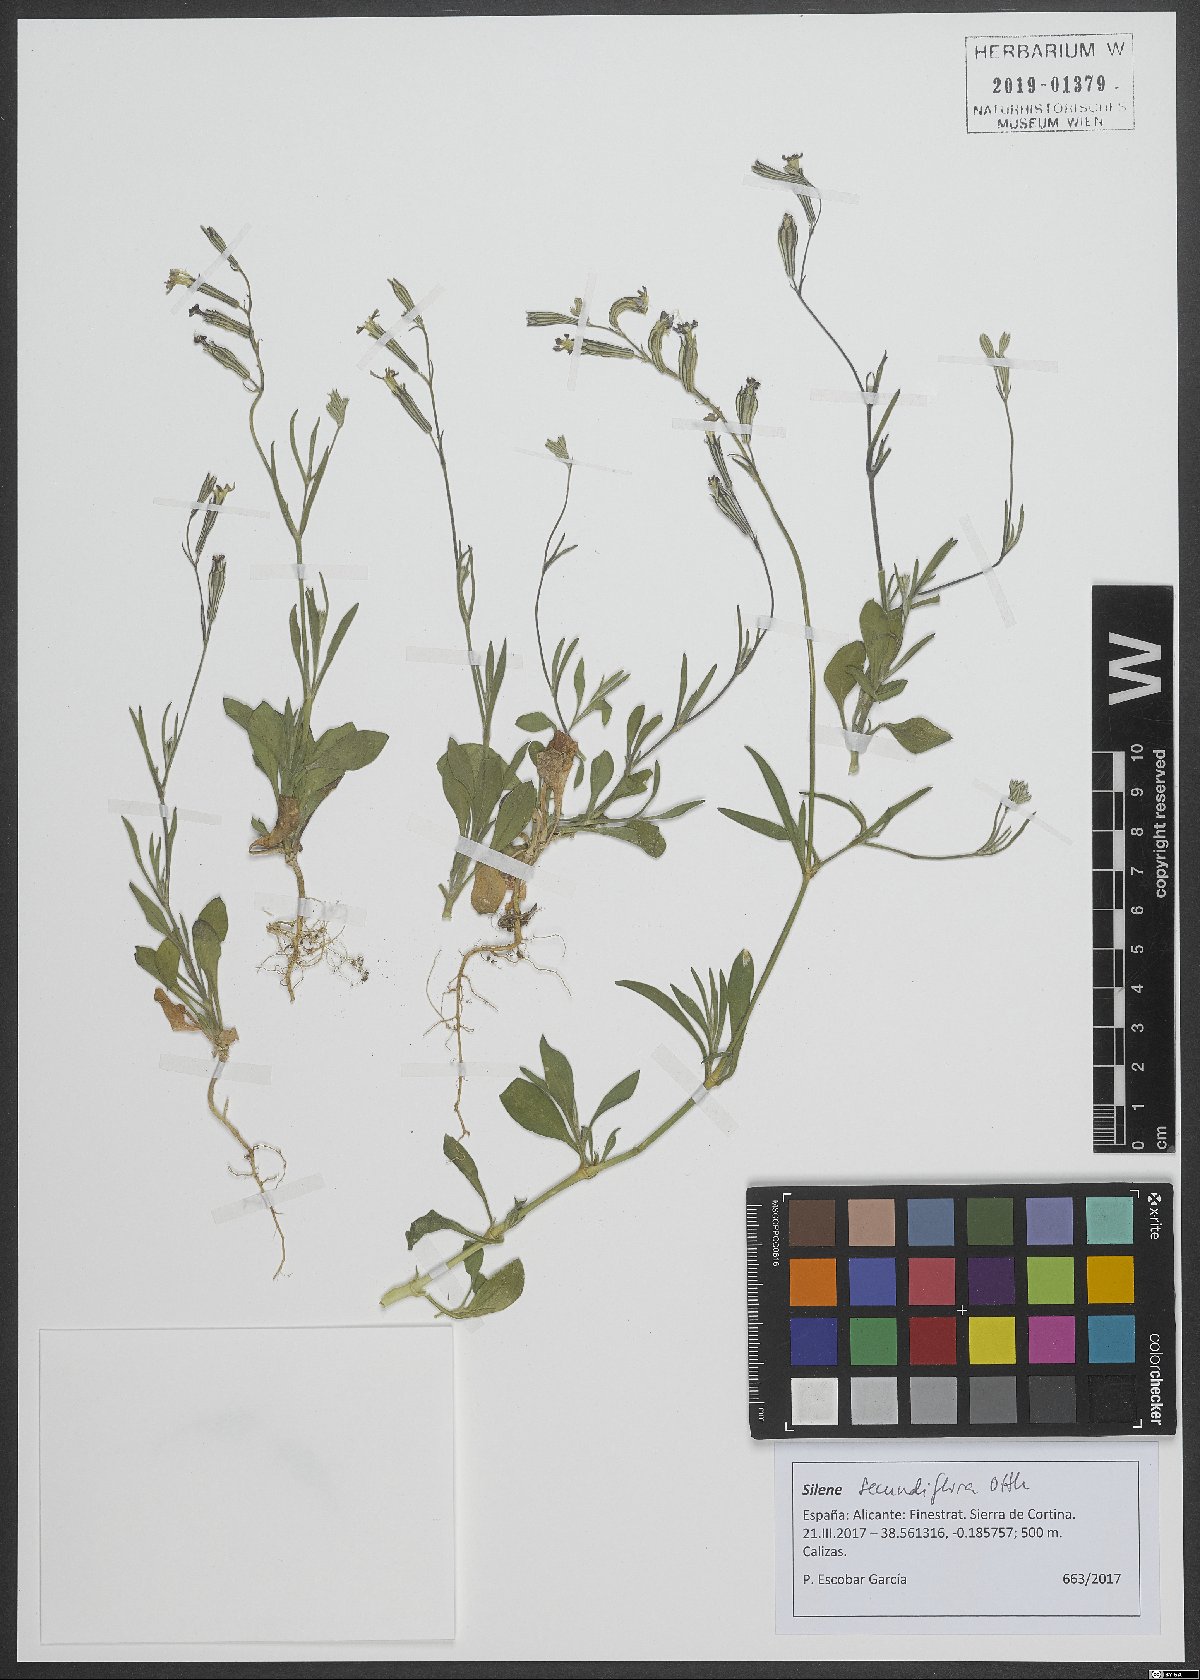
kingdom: Plantae
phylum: Tracheophyta
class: Magnoliopsida
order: Caryophyllales
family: Caryophyllaceae
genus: Silene
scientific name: Silene secundiflora
